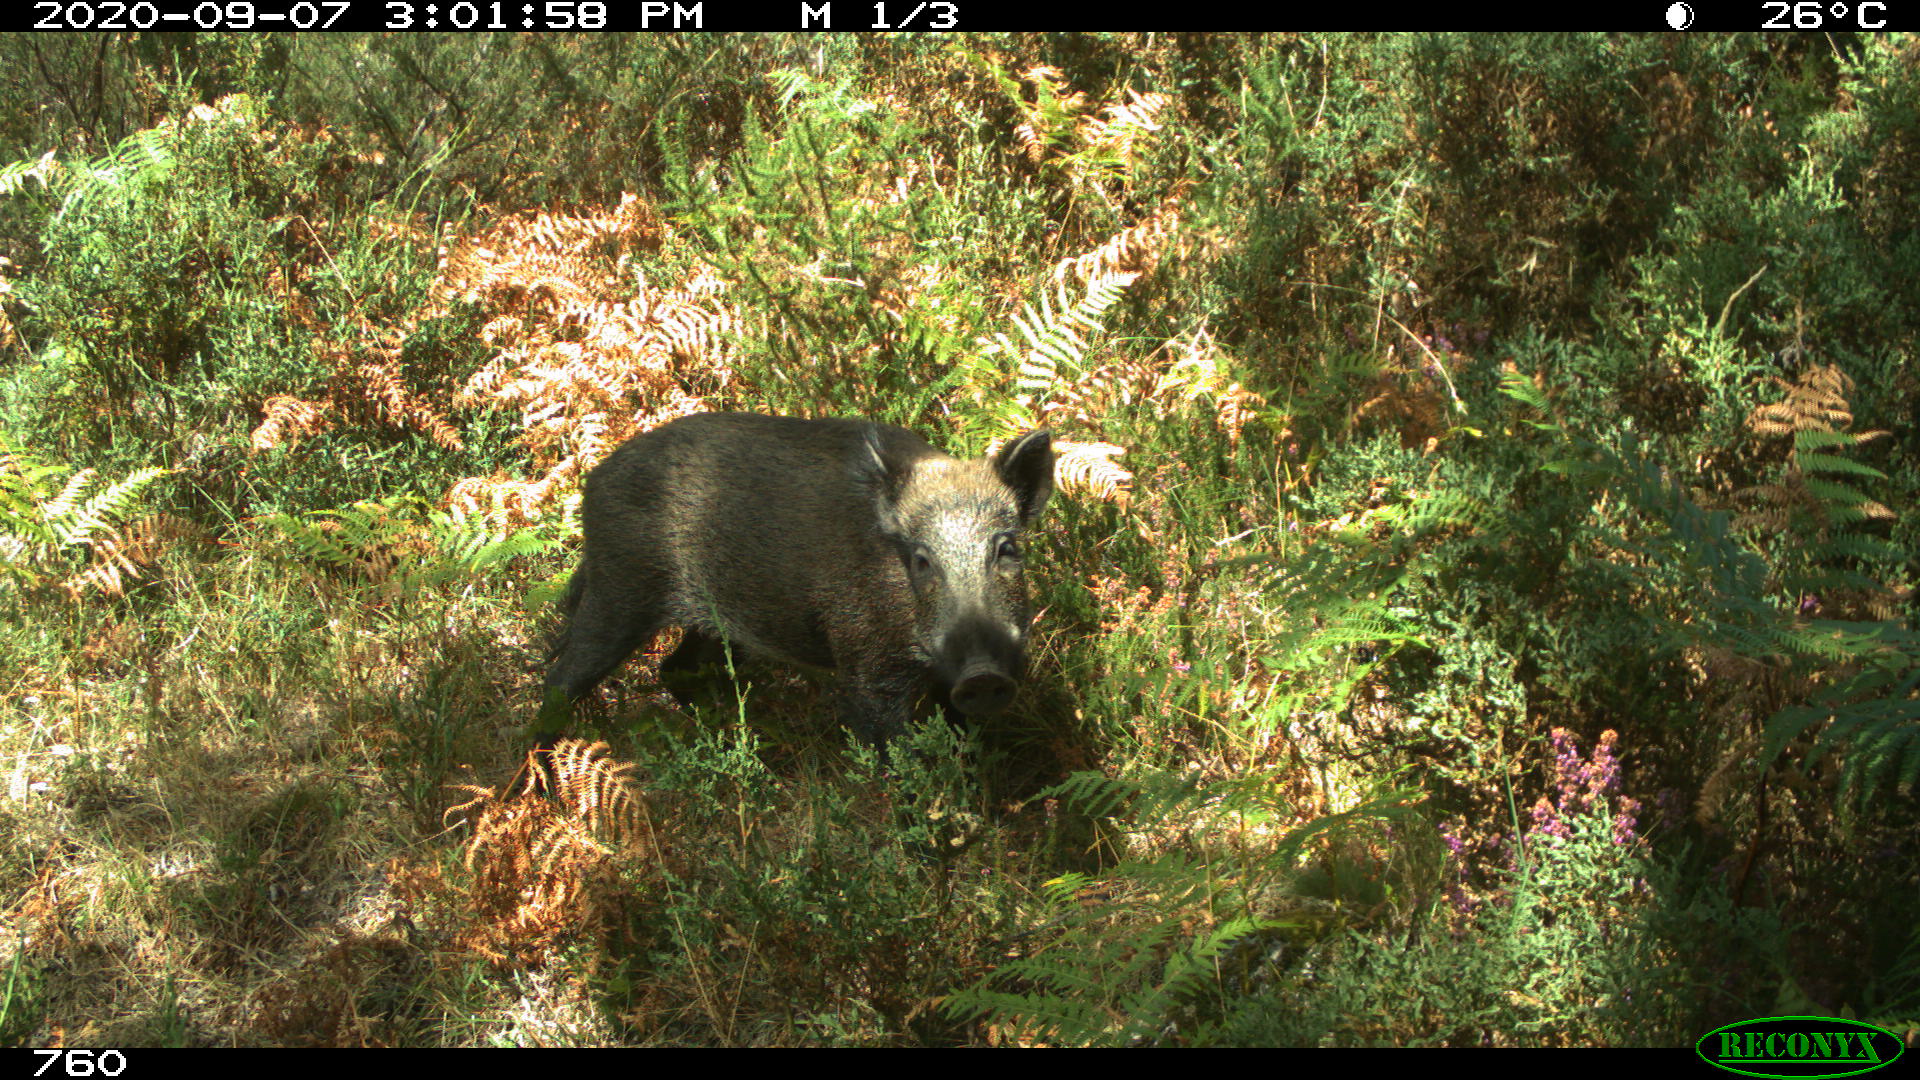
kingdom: Animalia
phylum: Chordata
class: Mammalia
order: Artiodactyla
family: Suidae
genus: Sus
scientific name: Sus scrofa
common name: Wild boar
